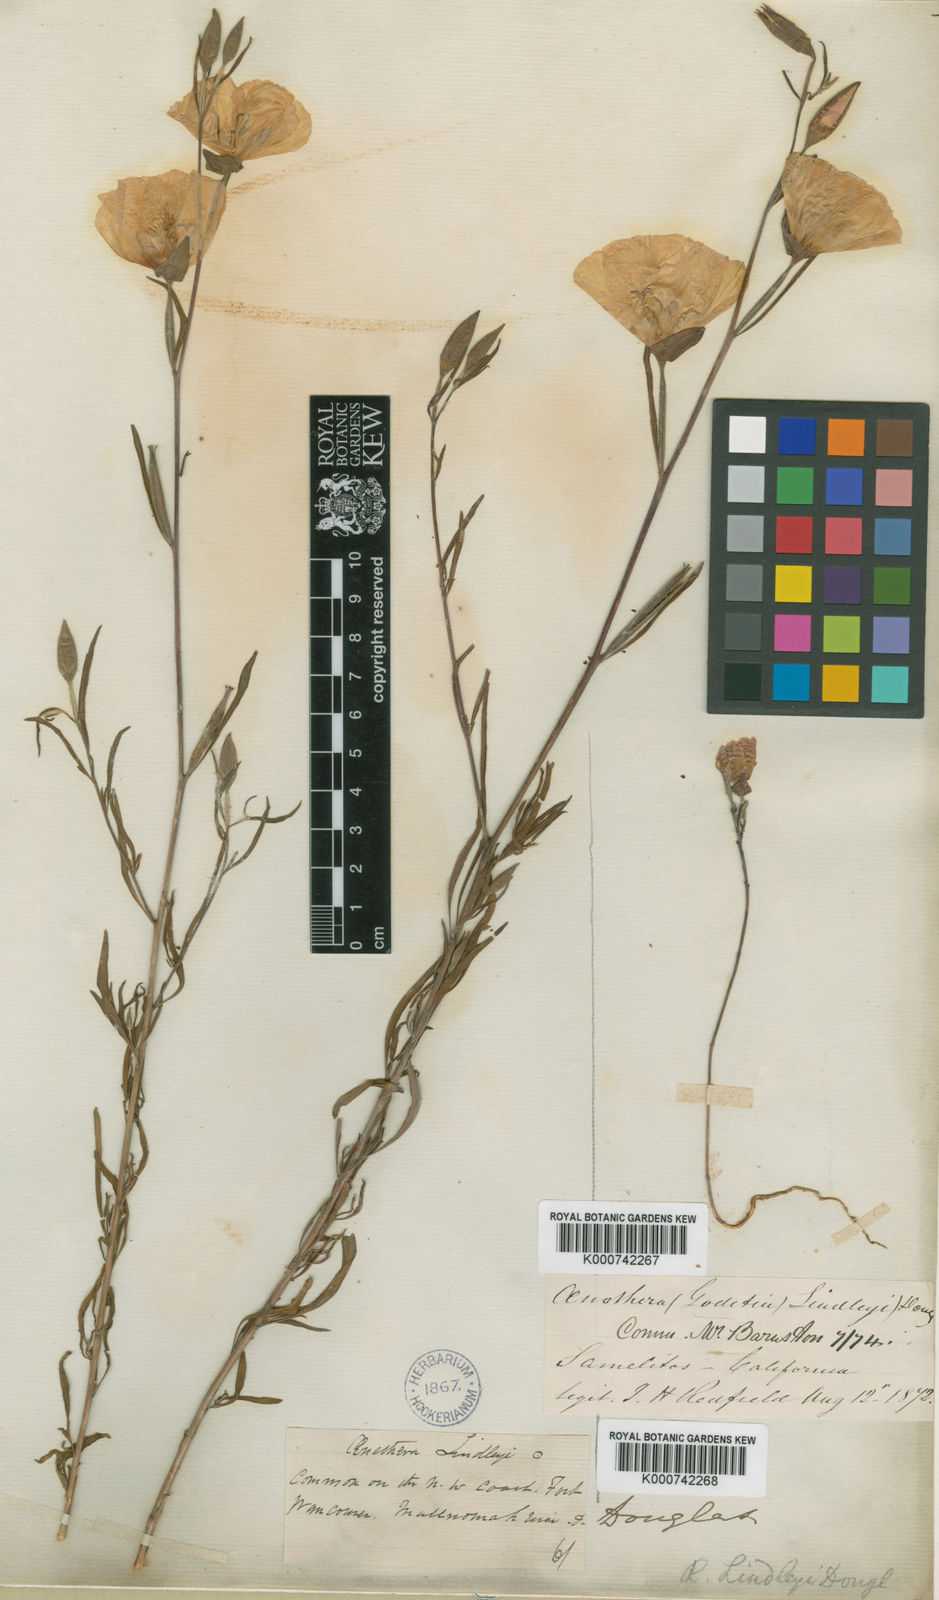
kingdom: Plantae
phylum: Tracheophyta
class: Magnoliopsida
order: Myrtales
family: Onagraceae
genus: Clarkia
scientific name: Clarkia amoena
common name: Godetia
